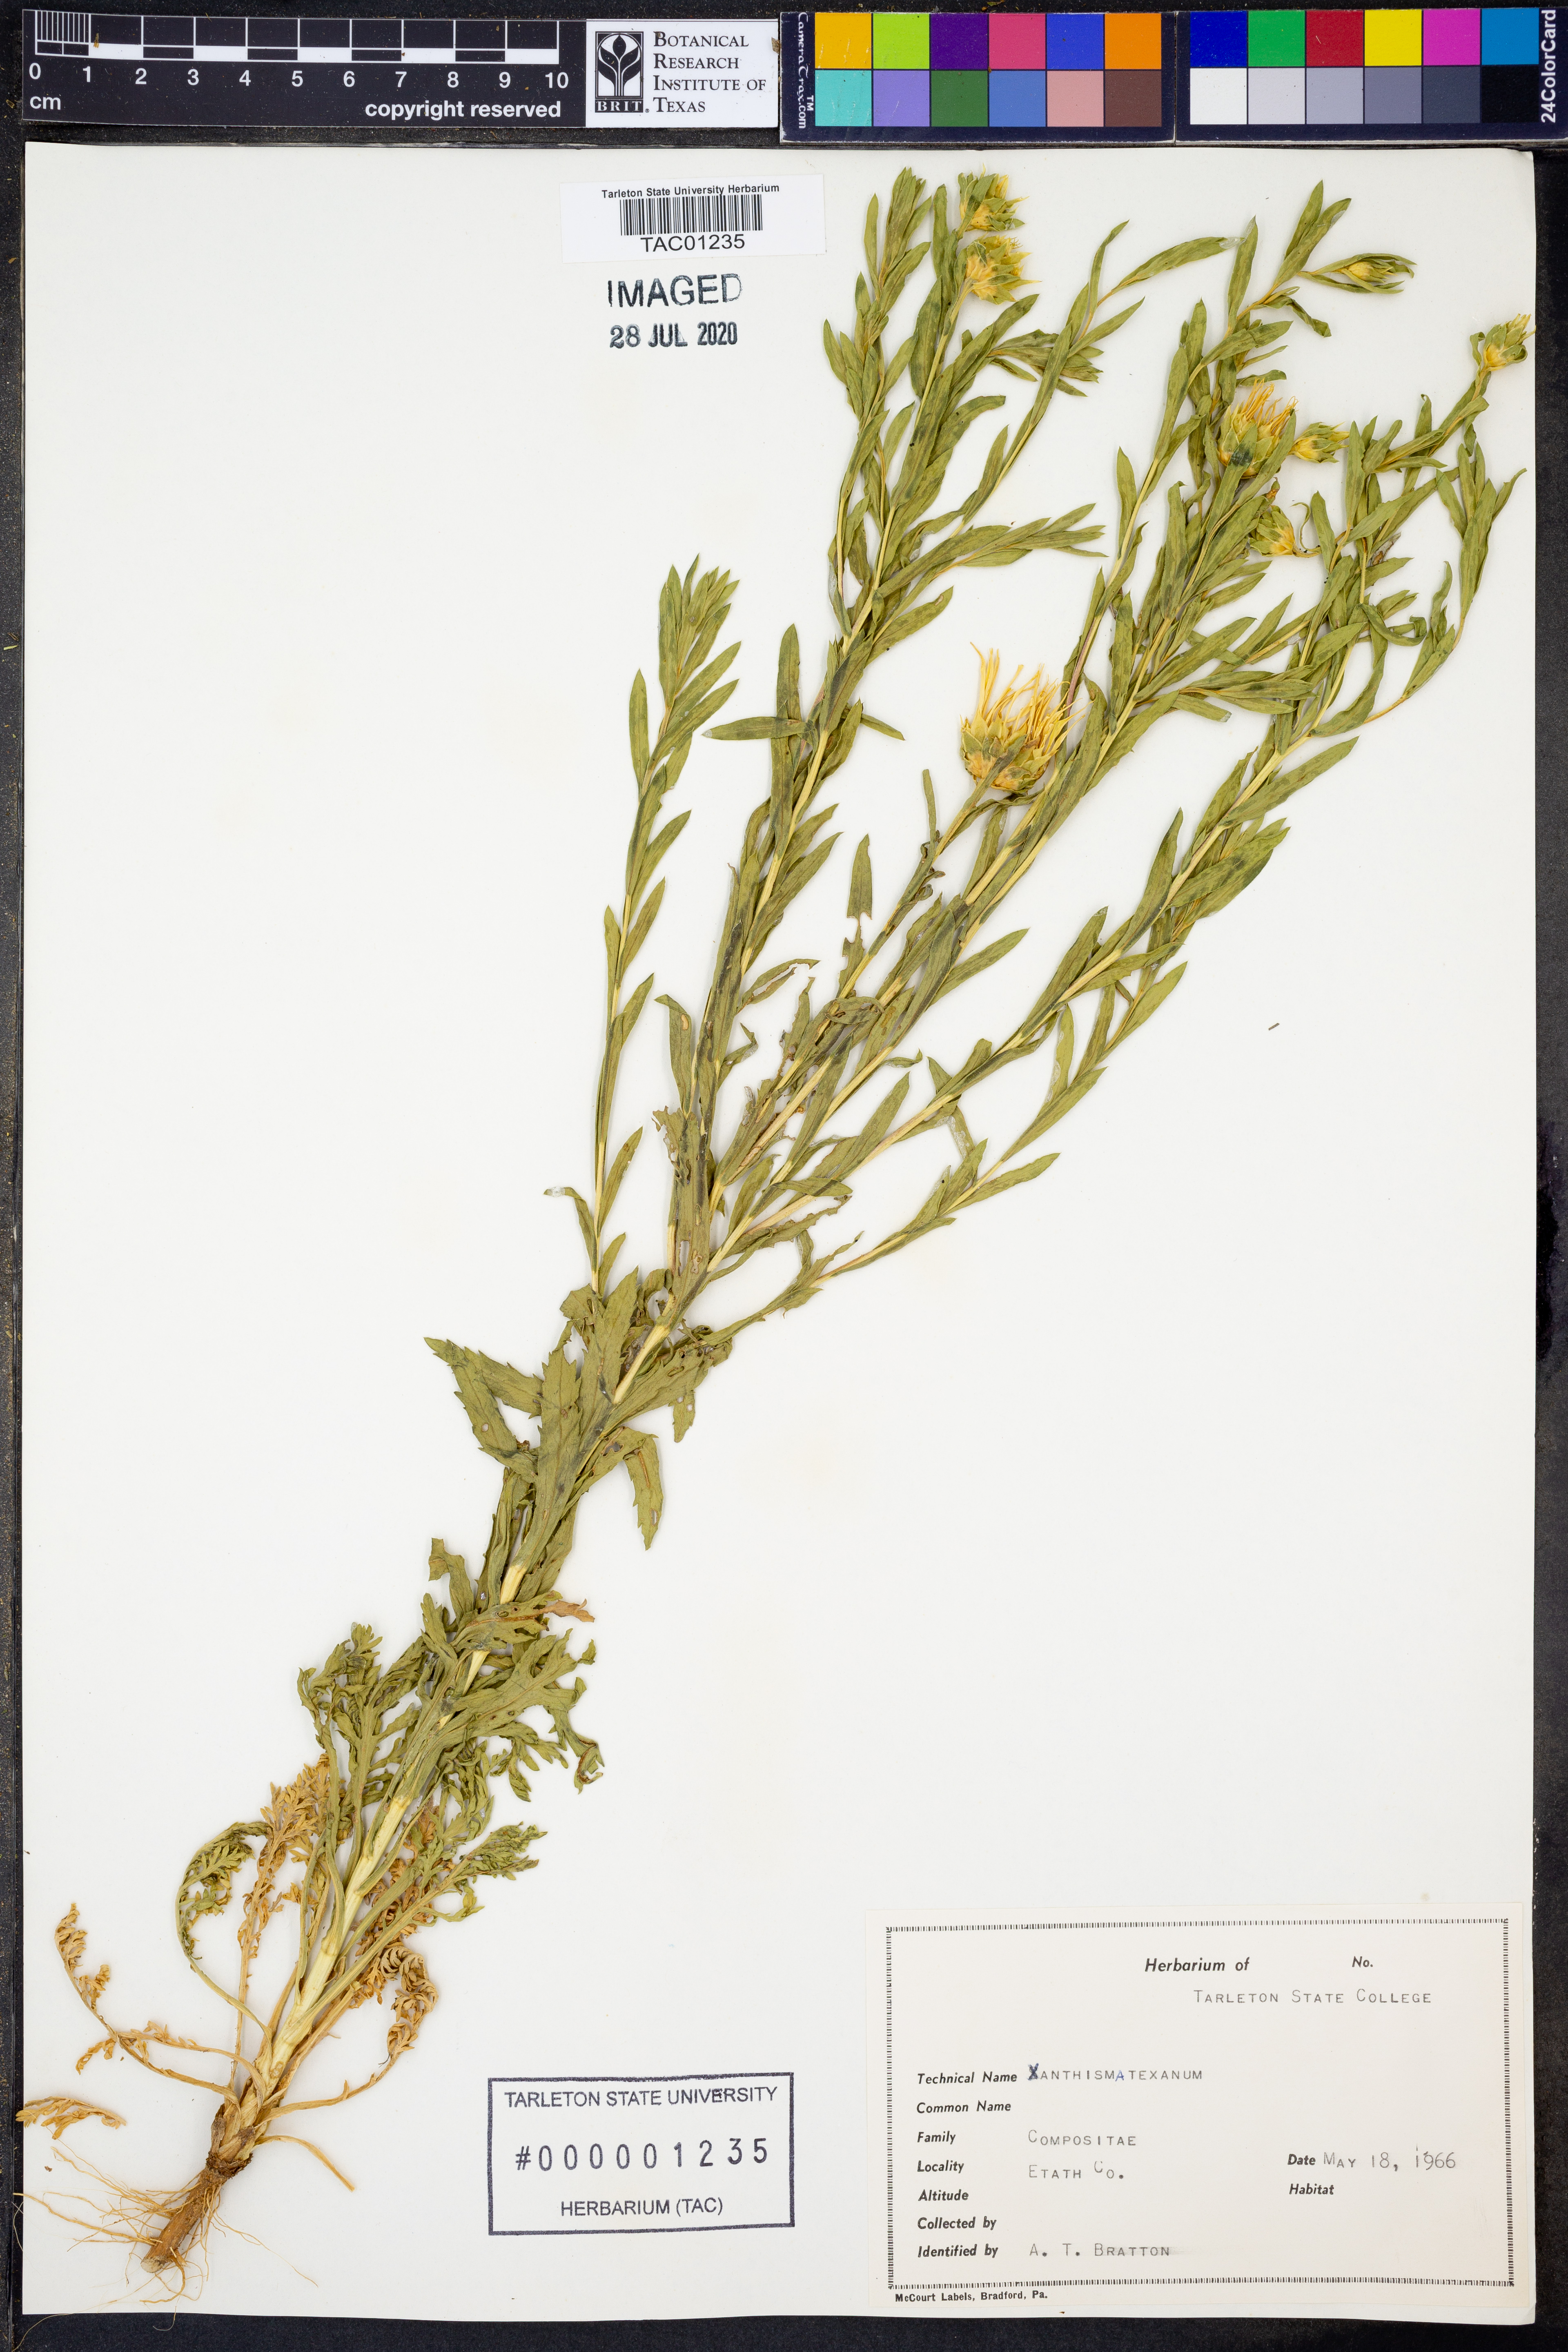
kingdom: Plantae
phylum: Tracheophyta
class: Magnoliopsida
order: Asterales
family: Asteraceae
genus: Xanthisma
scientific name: Xanthisma texanum
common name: Texas sleepy daisy
